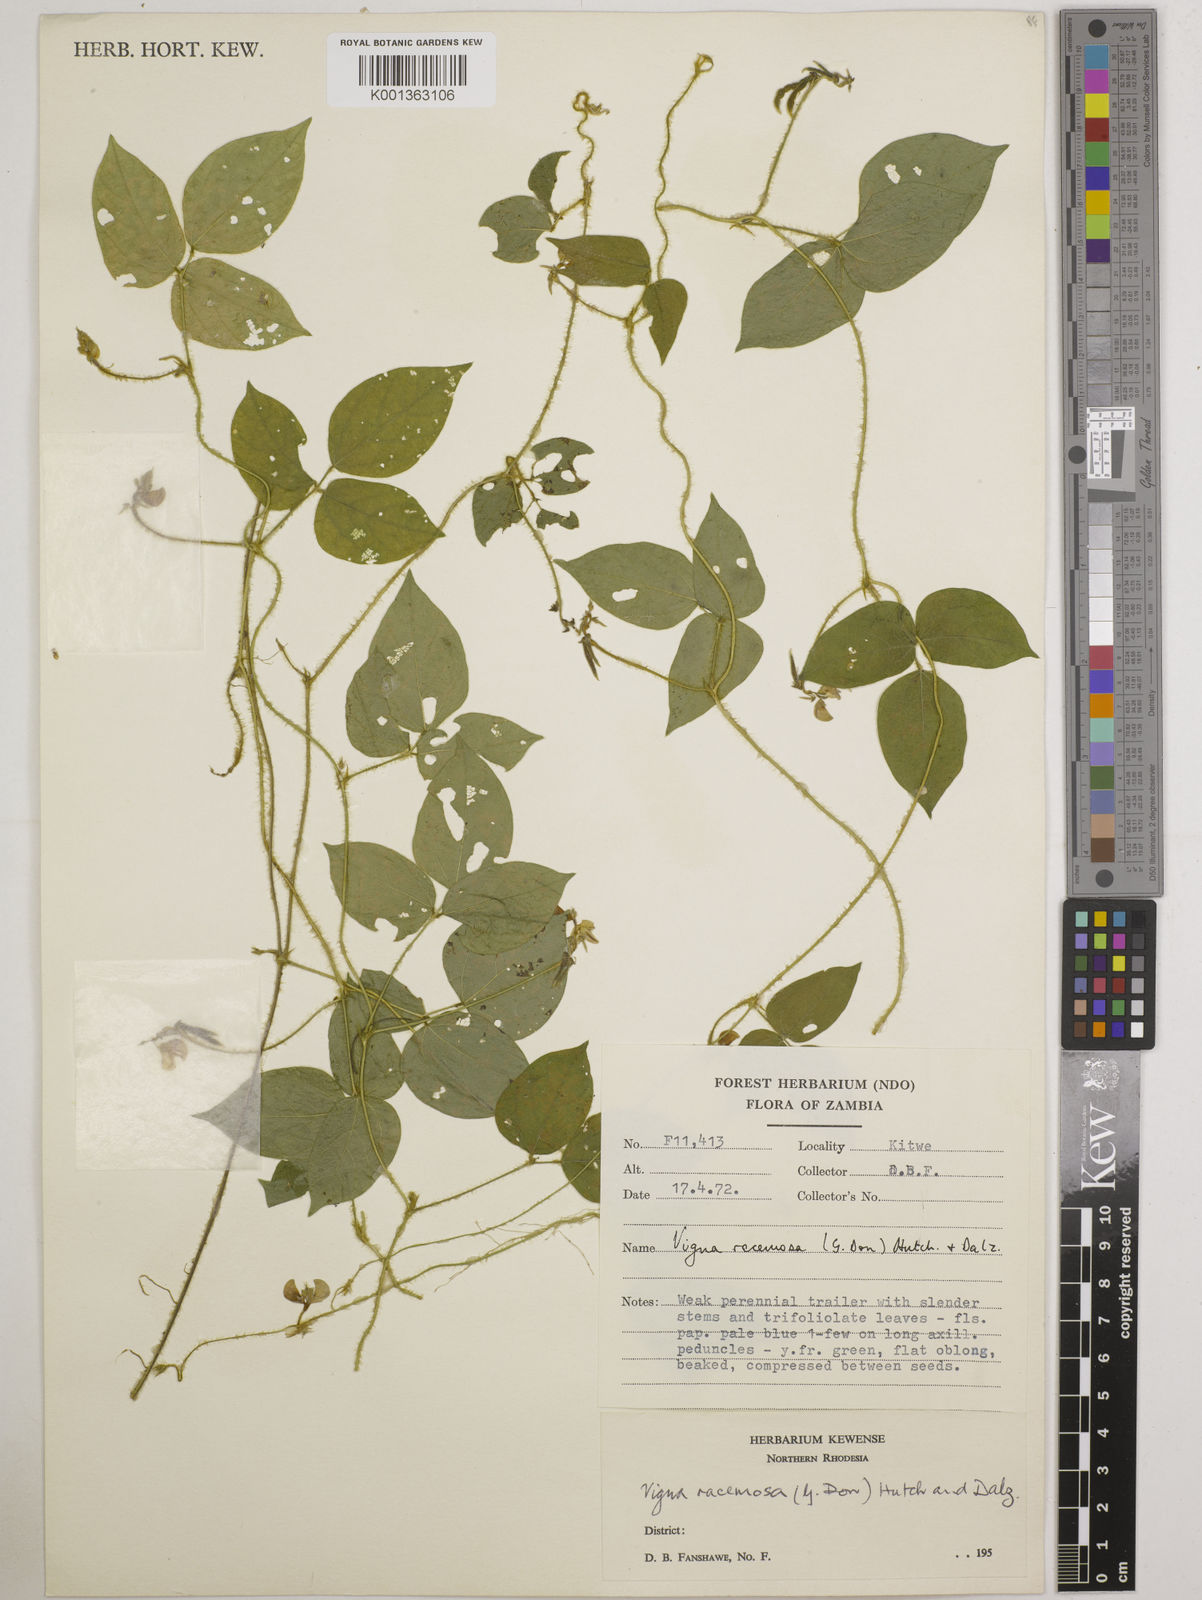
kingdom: Plantae
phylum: Tracheophyta
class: Magnoliopsida
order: Fabales
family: Fabaceae
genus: Vigna
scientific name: Vigna racemosa
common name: Beans not eaten
